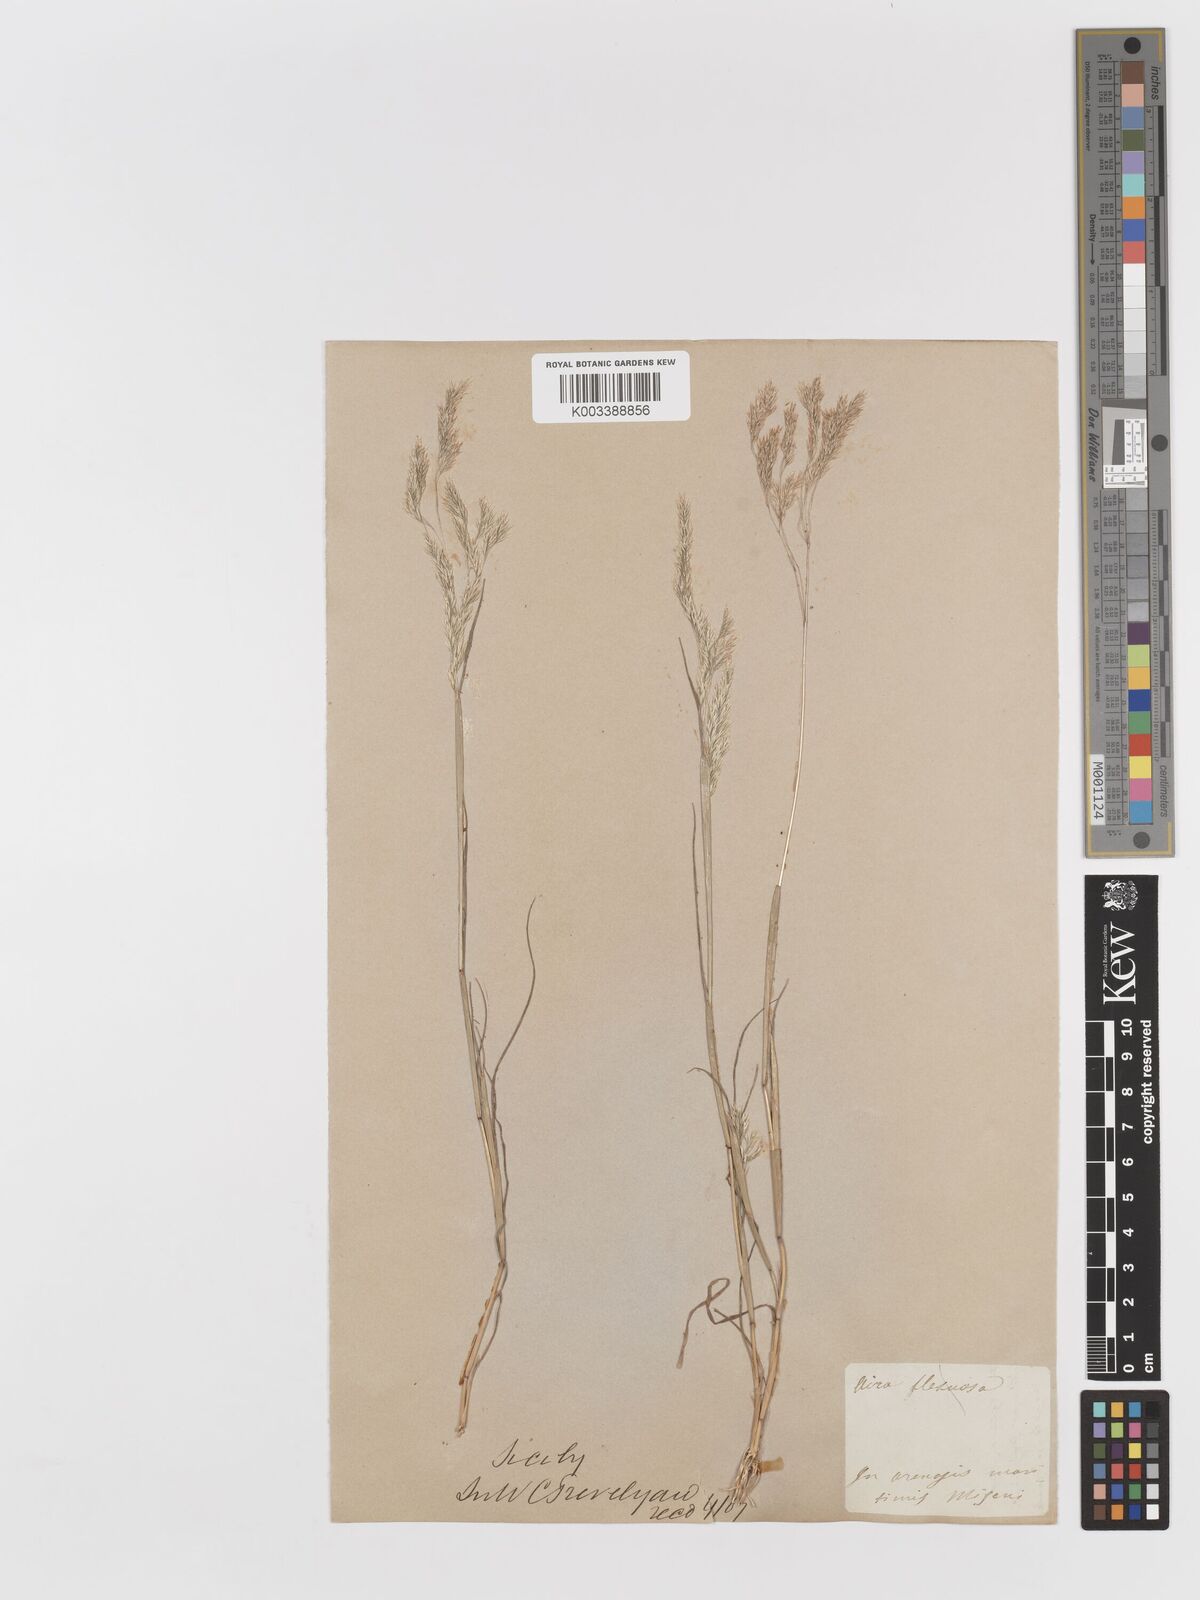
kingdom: Plantae
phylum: Tracheophyta
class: Liliopsida
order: Poales
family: Poaceae
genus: Corynephorus
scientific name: Corynephorus divaricatus
